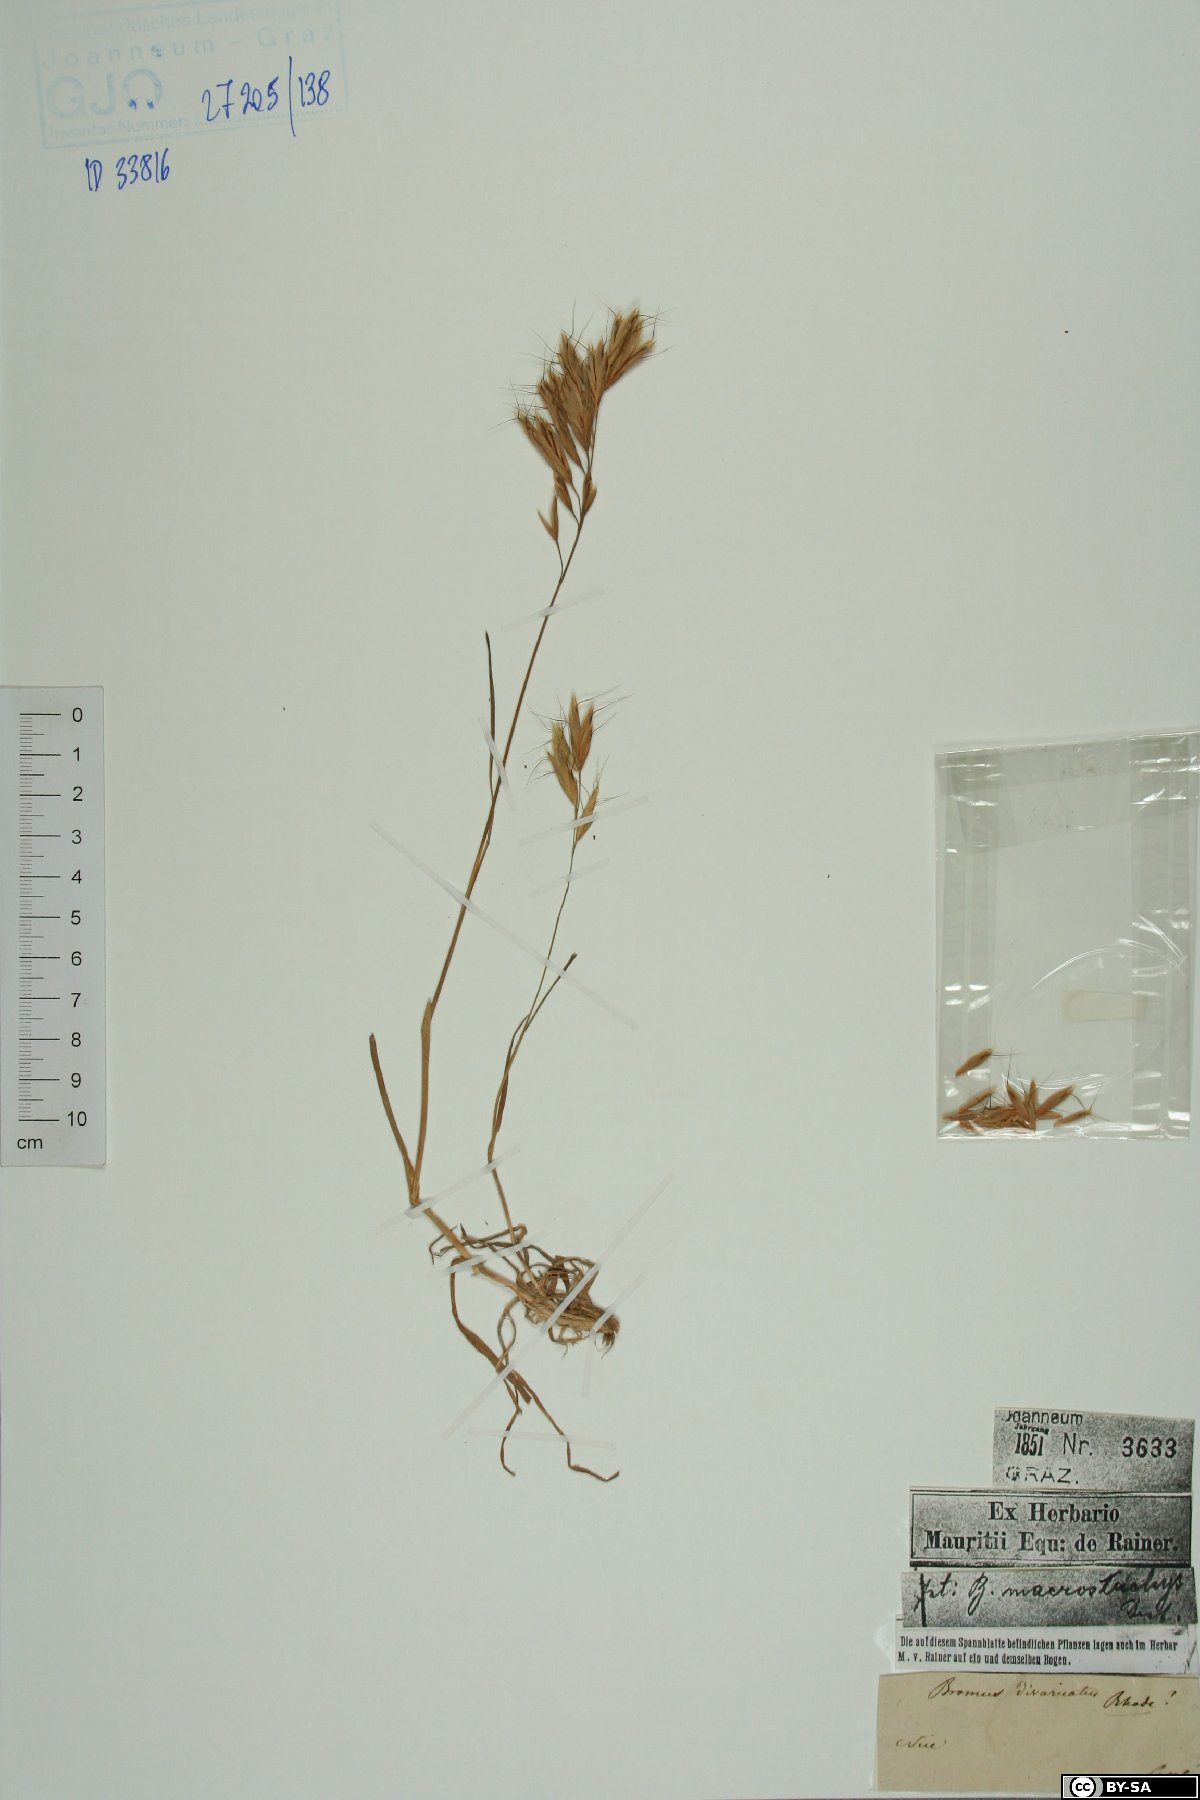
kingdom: Plantae
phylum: Tracheophyta
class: Liliopsida
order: Poales
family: Poaceae
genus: Bromus
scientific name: Bromus lanceolatus
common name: Mediterranean brome
